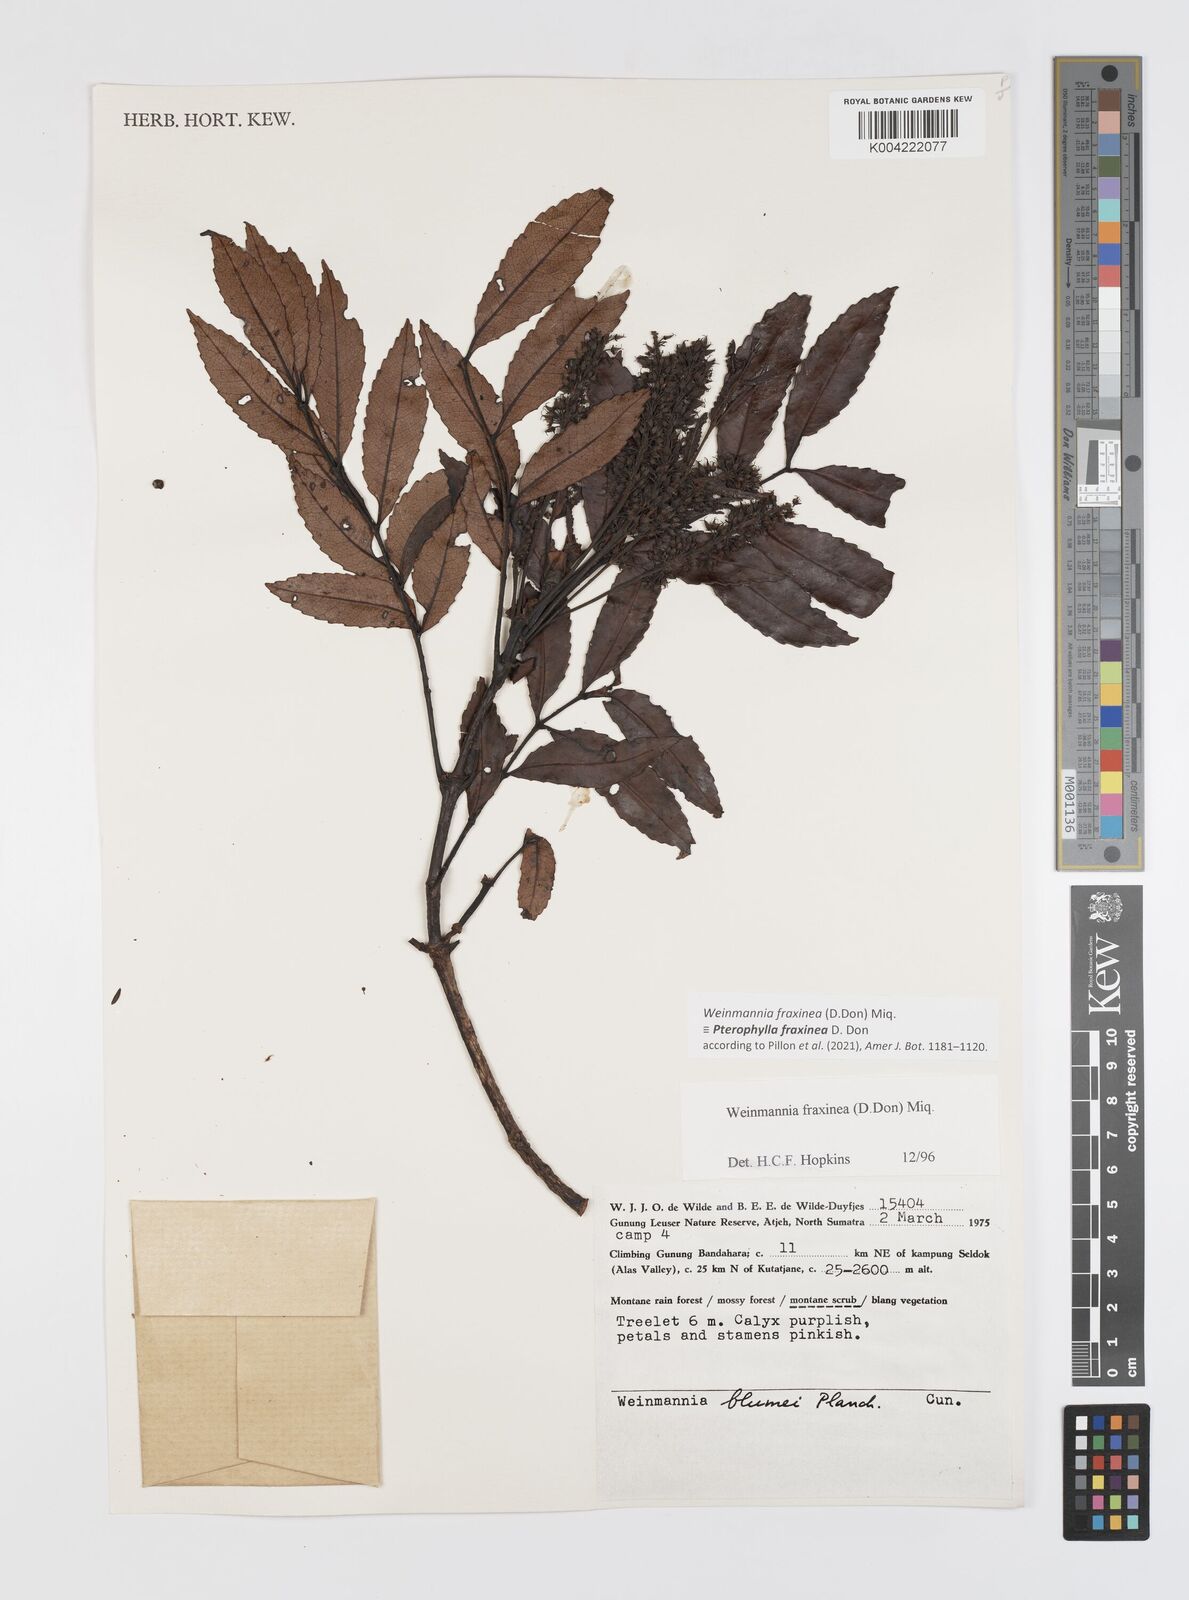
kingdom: Plantae
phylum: Tracheophyta
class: Magnoliopsida
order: Oxalidales
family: Cunoniaceae
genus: Pterophylla
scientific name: Pterophylla fraxinea
